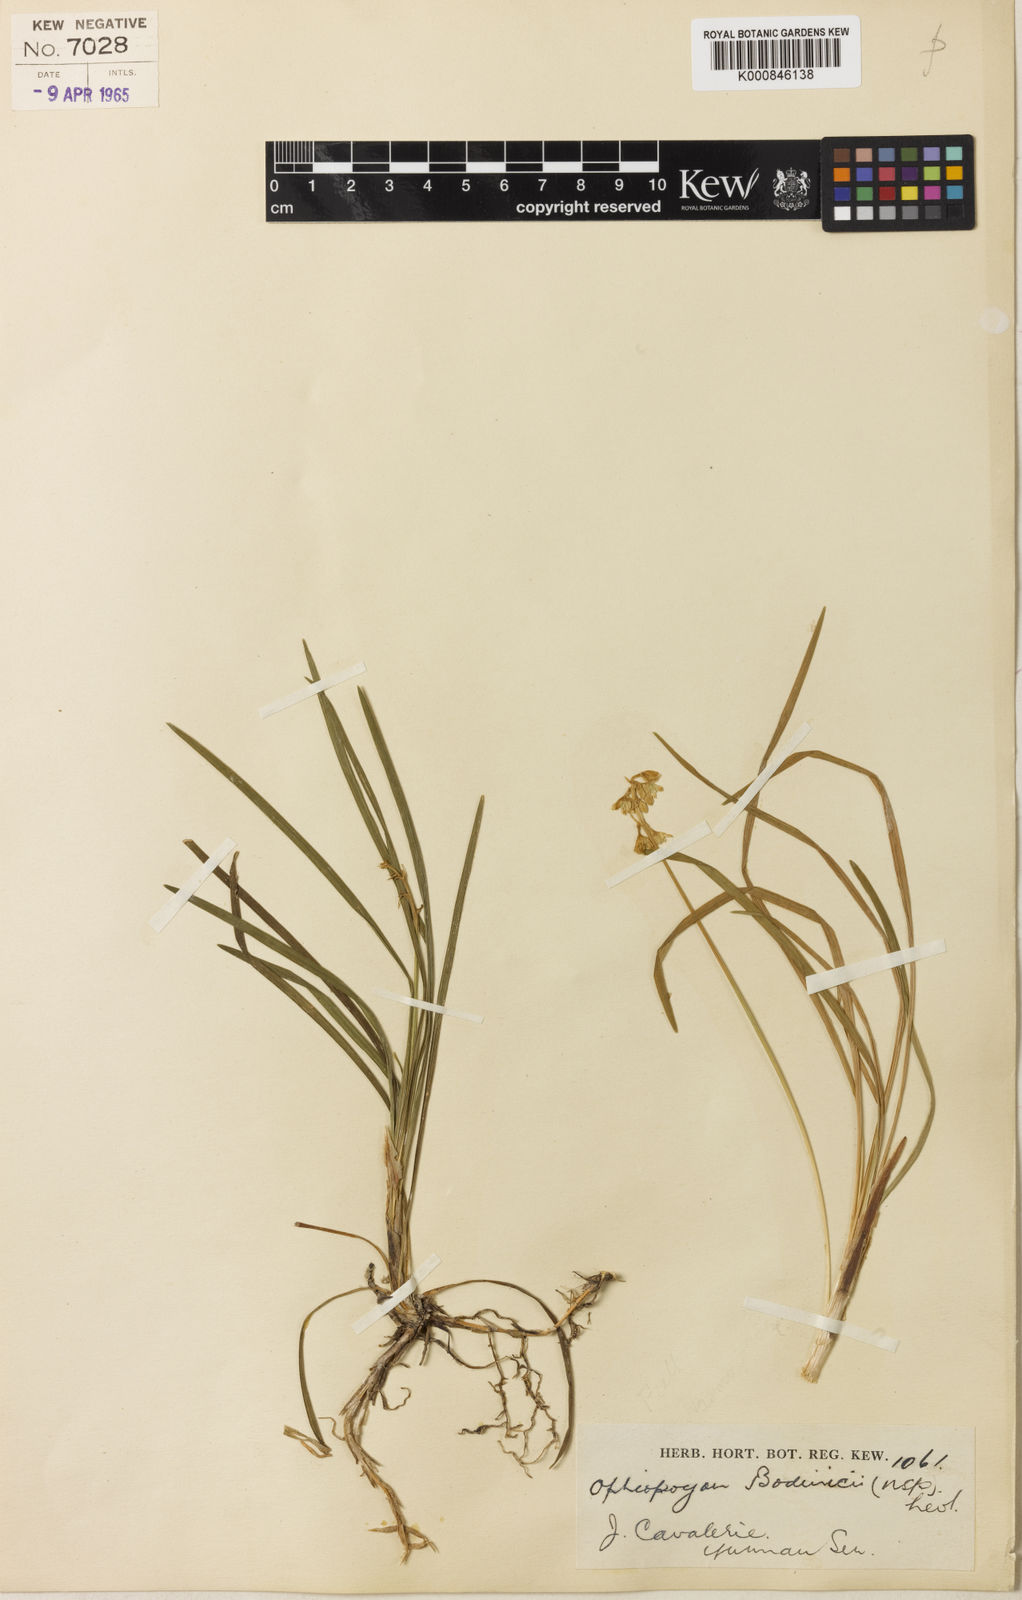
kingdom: Plantae
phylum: Tracheophyta
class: Liliopsida
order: Asparagales
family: Asparagaceae
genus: Ophiopogon
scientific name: Ophiopogon
